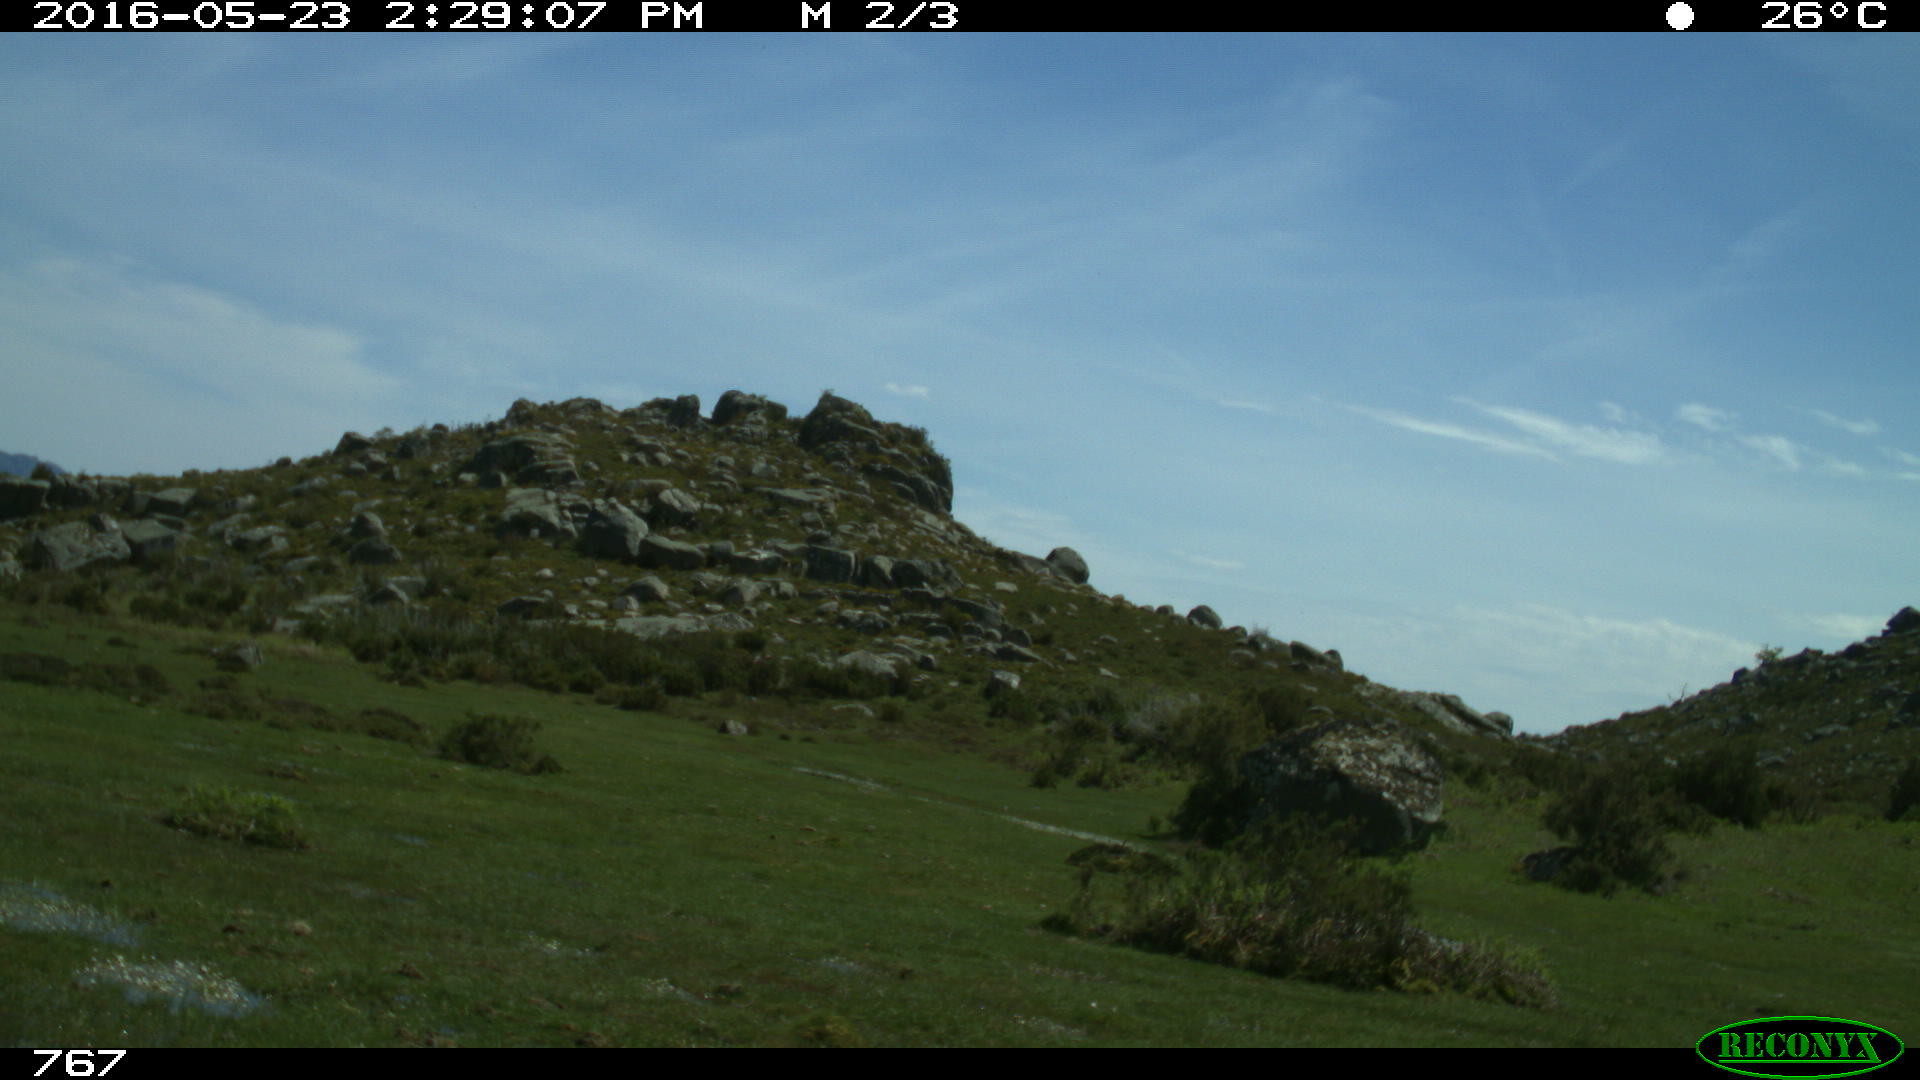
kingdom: Animalia
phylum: Chordata
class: Mammalia
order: Artiodactyla
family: Bovidae
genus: Bos
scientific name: Bos taurus
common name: Domesticated cattle
